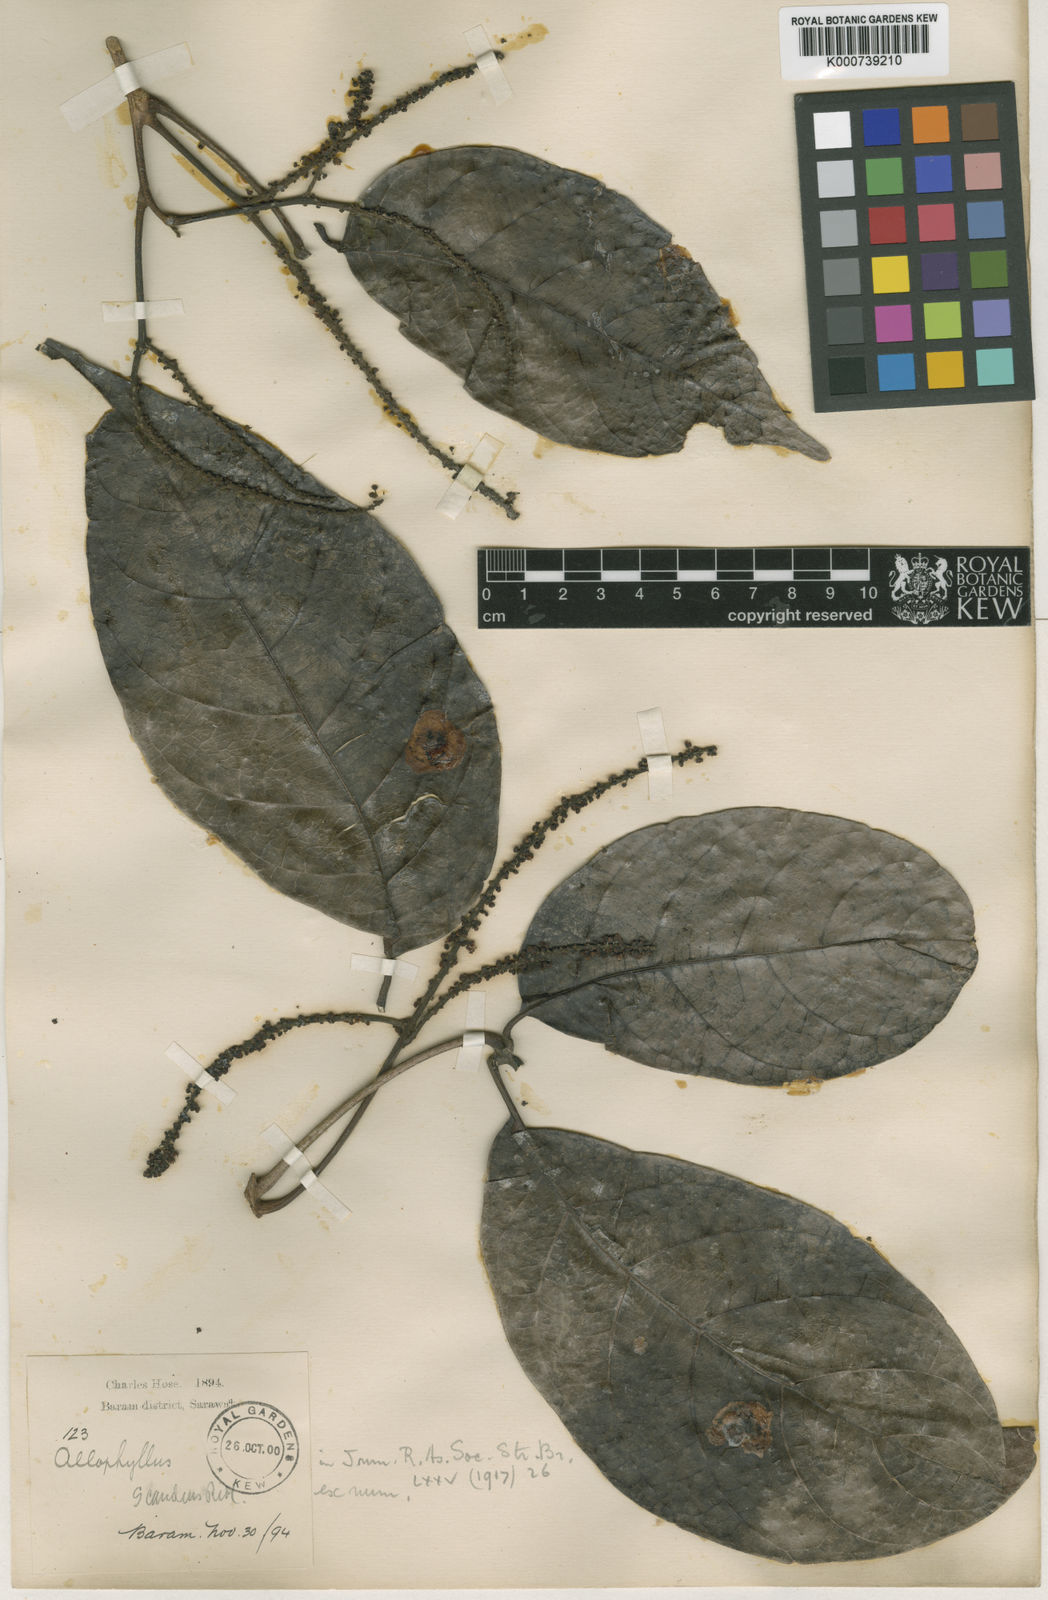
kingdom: Plantae
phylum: Tracheophyta
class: Magnoliopsida
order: Sapindales
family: Sapindaceae
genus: Allophylus
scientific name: Allophylus scandens
